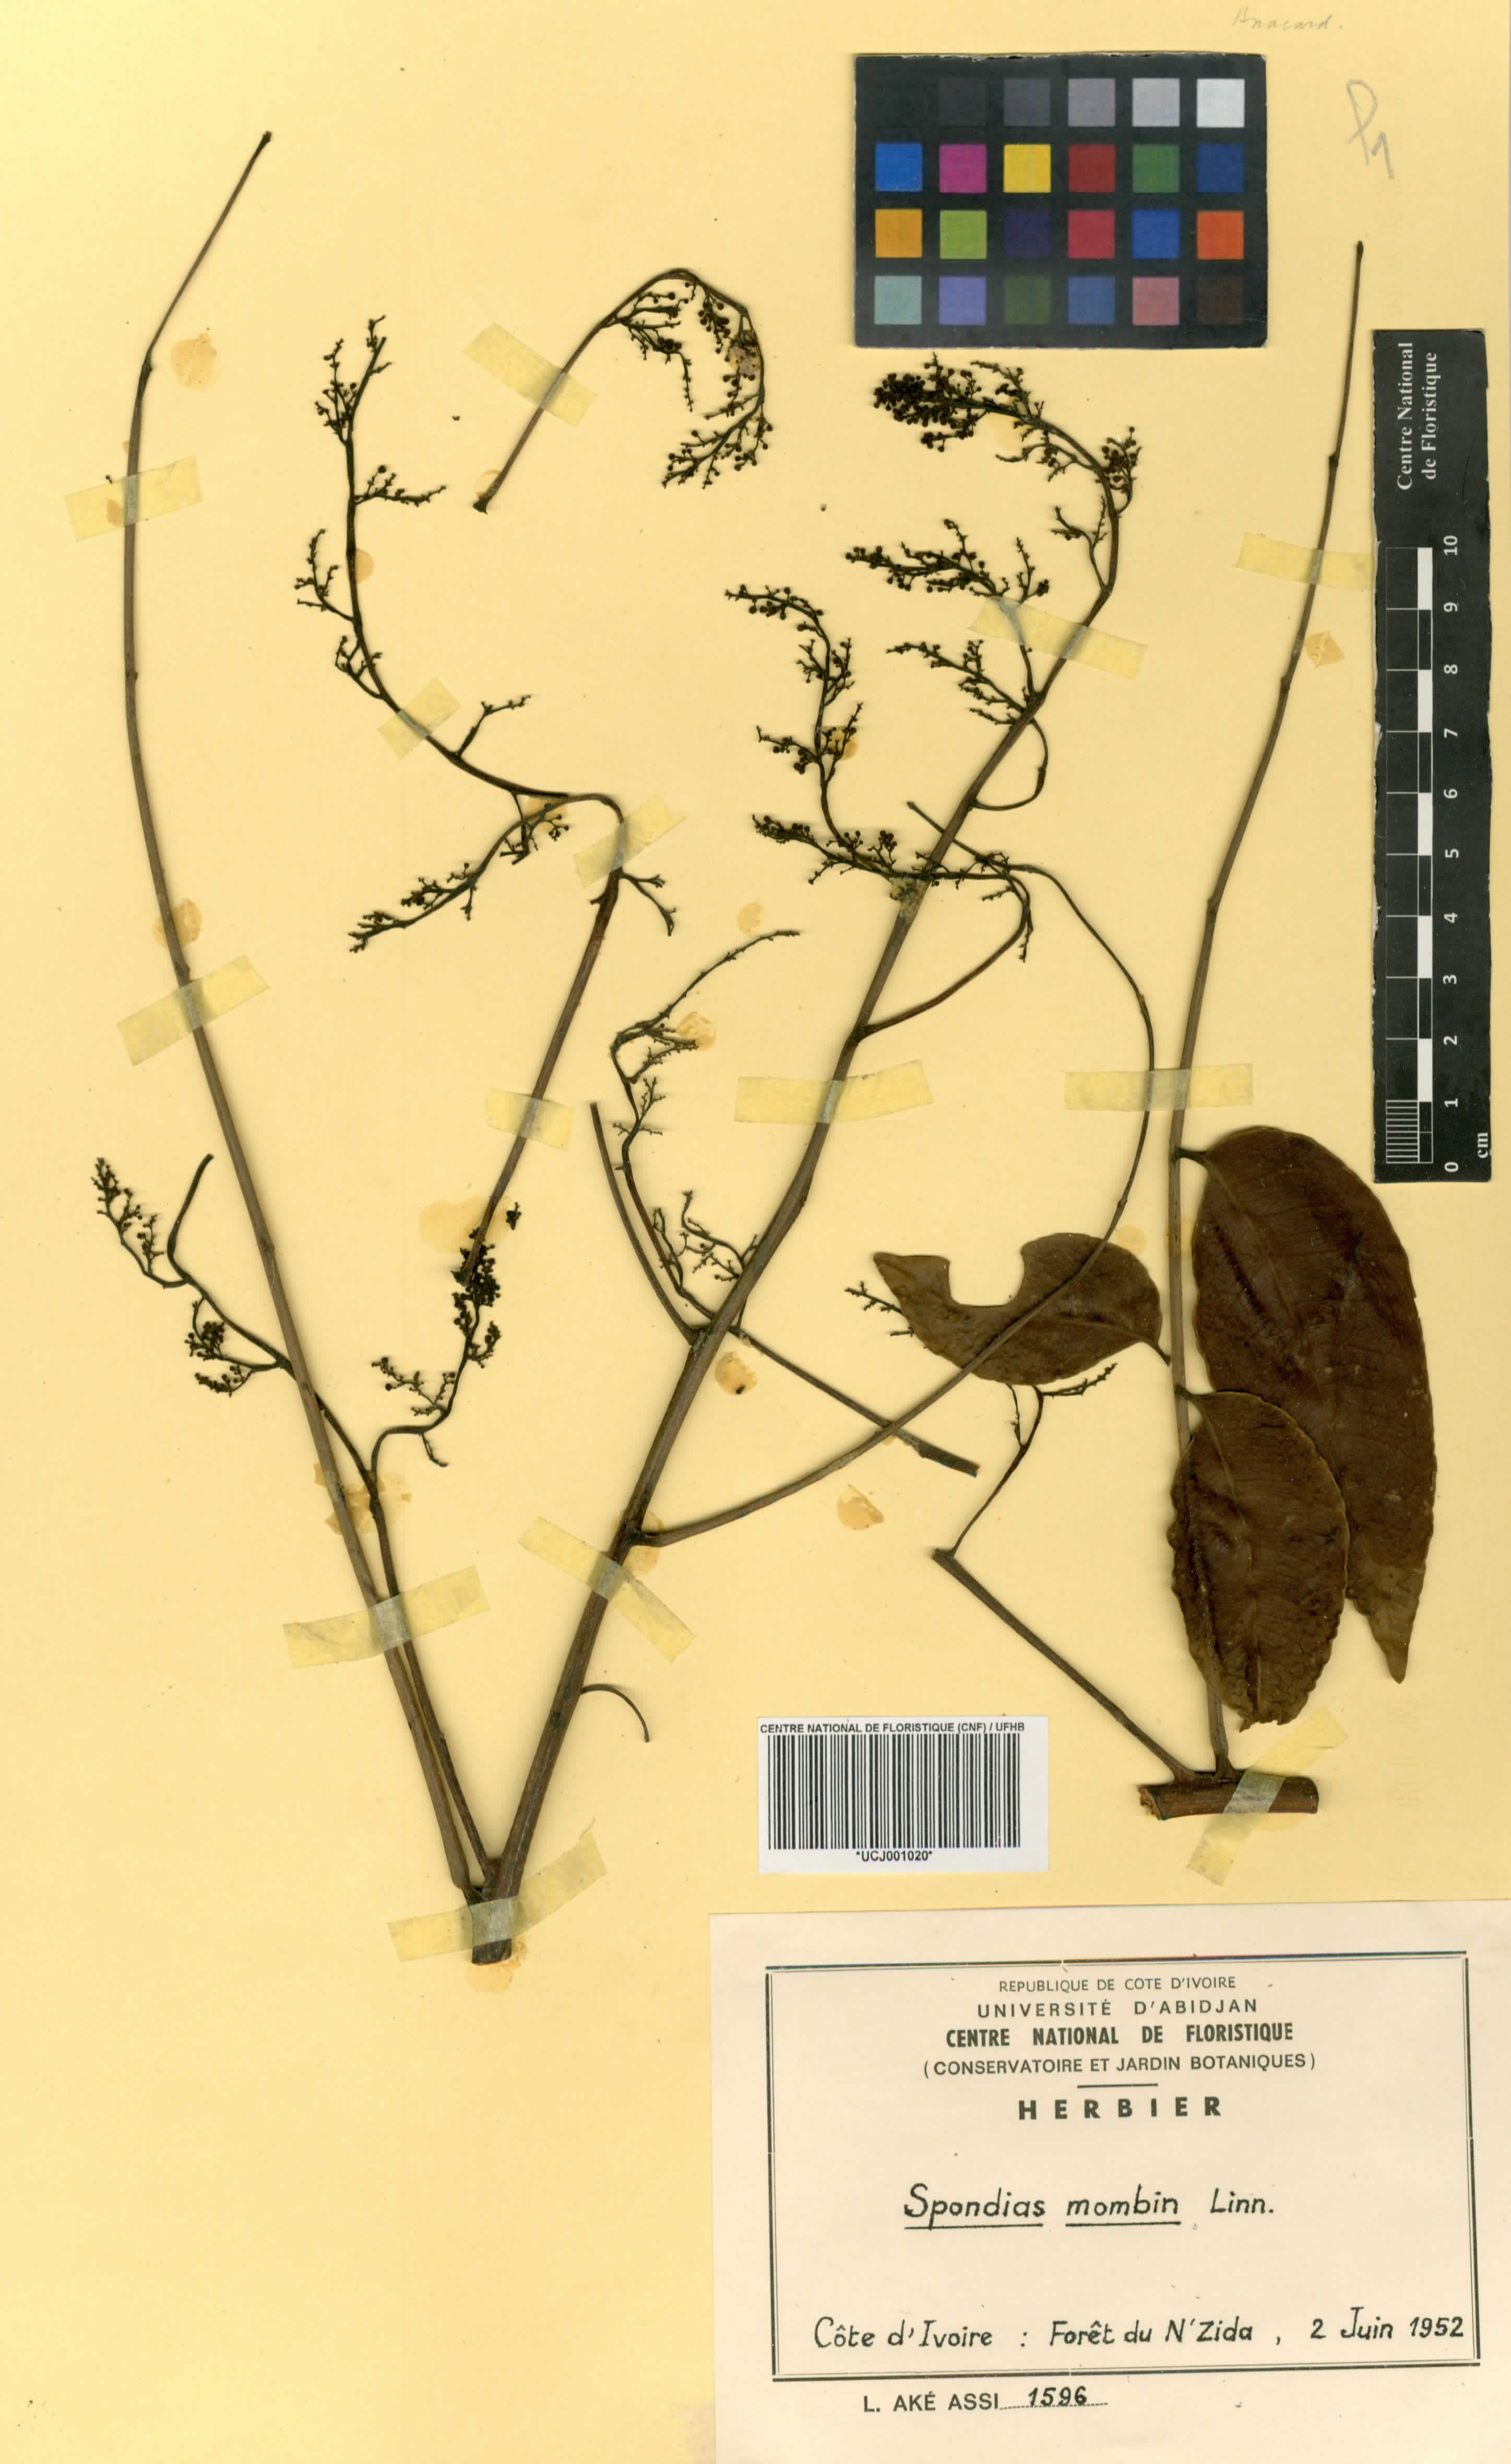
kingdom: Plantae
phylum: Tracheophyta
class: Magnoliopsida
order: Sapindales
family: Anacardiaceae
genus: Spondias
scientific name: Spondias mombin
